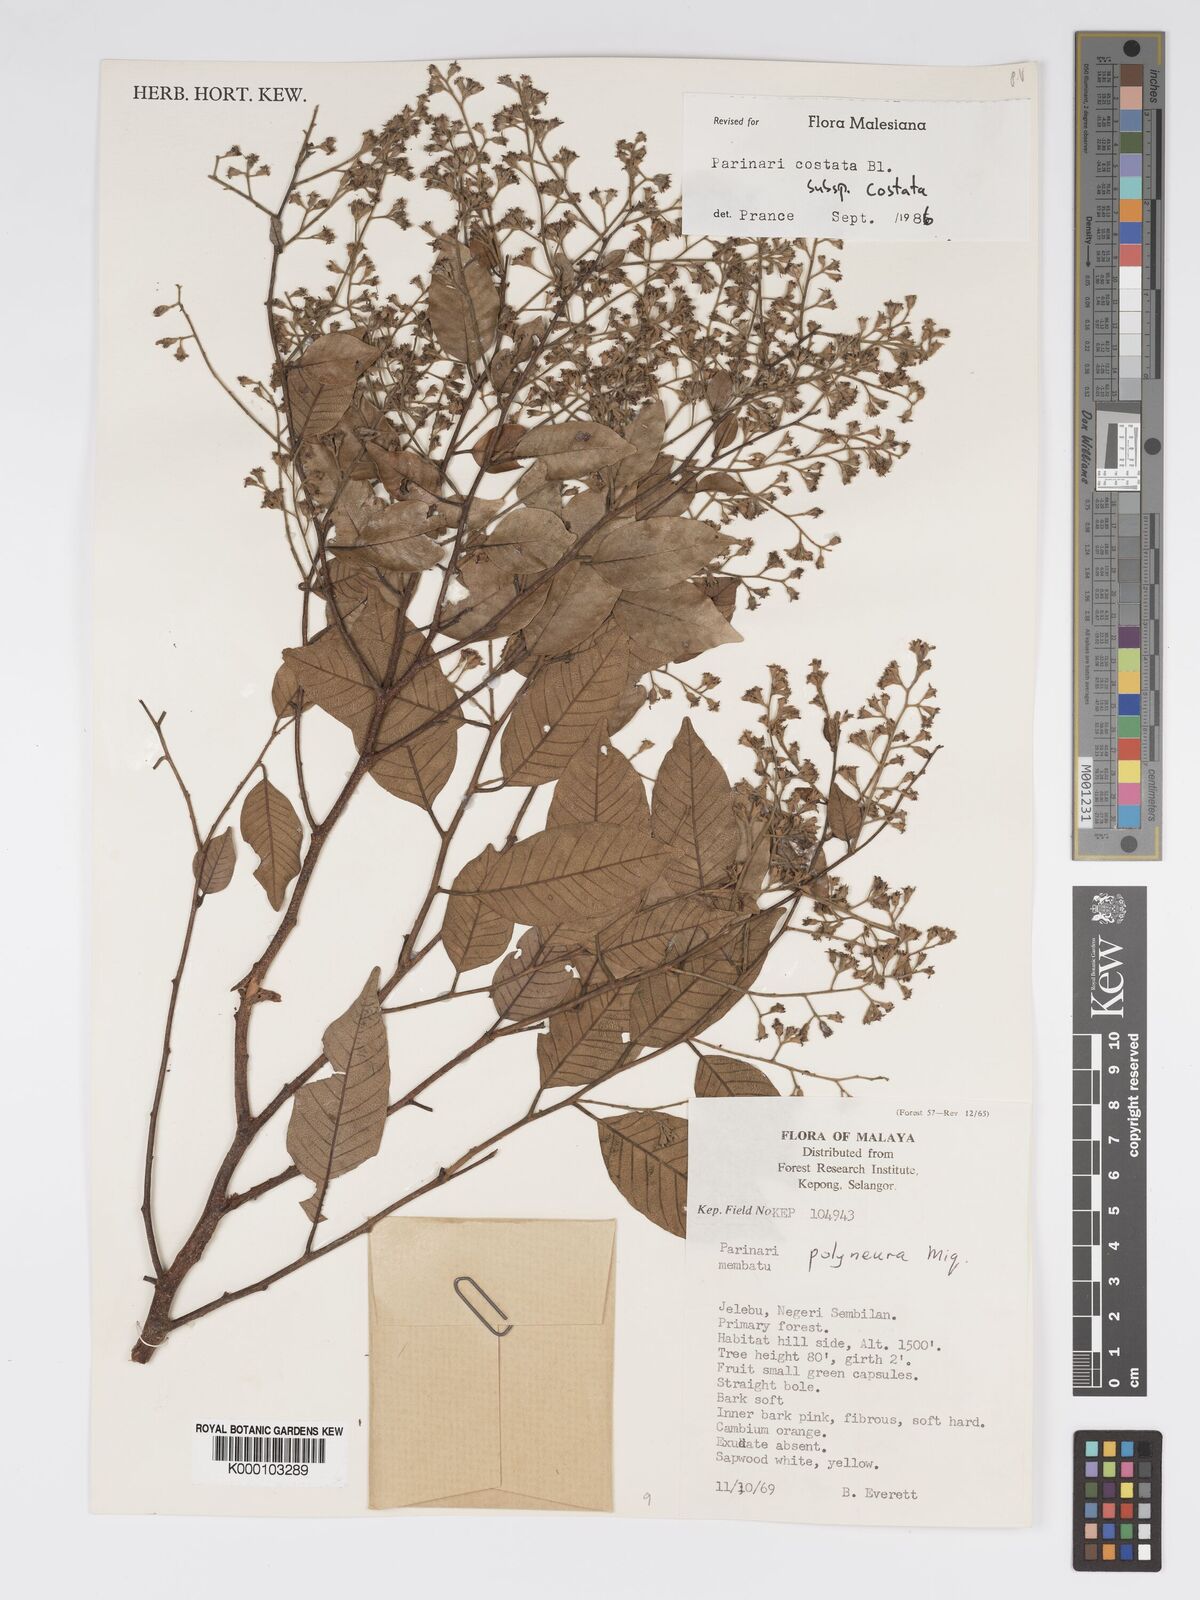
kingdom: Plantae
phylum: Tracheophyta
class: Magnoliopsida
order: Malpighiales
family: Chrysobalanaceae
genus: Parinari
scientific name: Parinari costata
